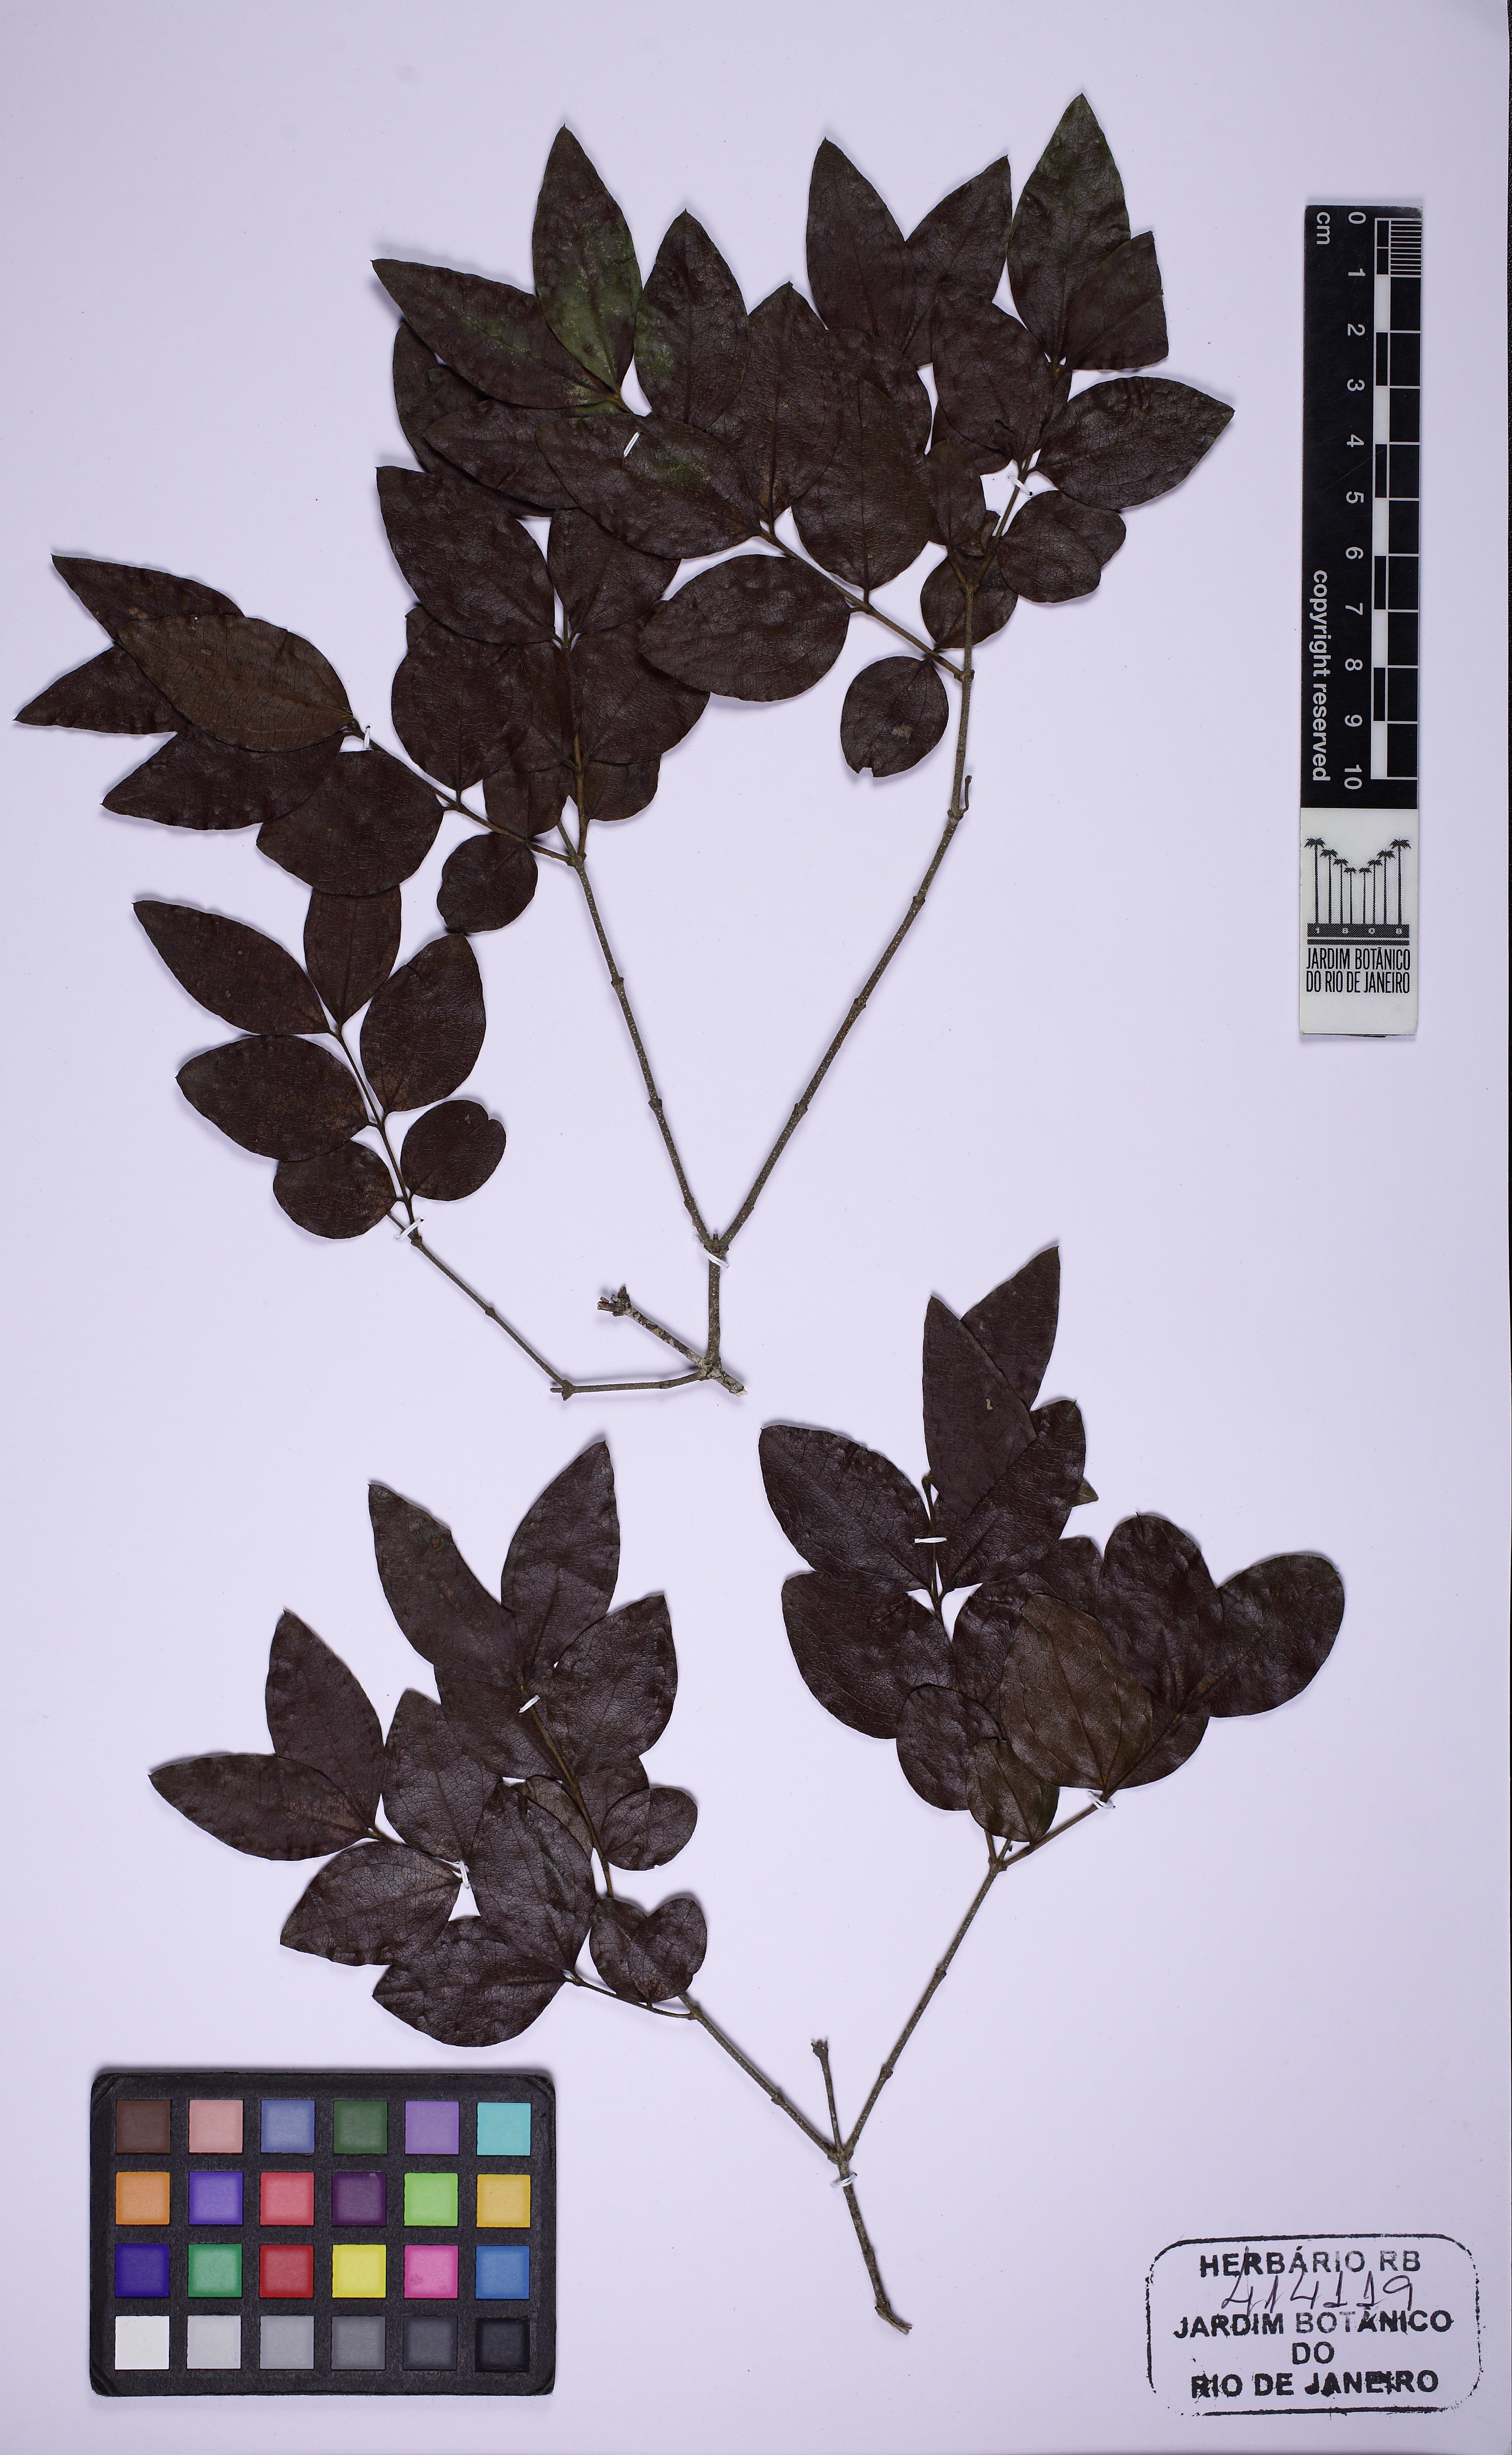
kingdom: Plantae
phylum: Tracheophyta
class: Magnoliopsida
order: Gentianales
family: Loganiaceae
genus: Strychnos
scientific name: Strychnos gardneri
